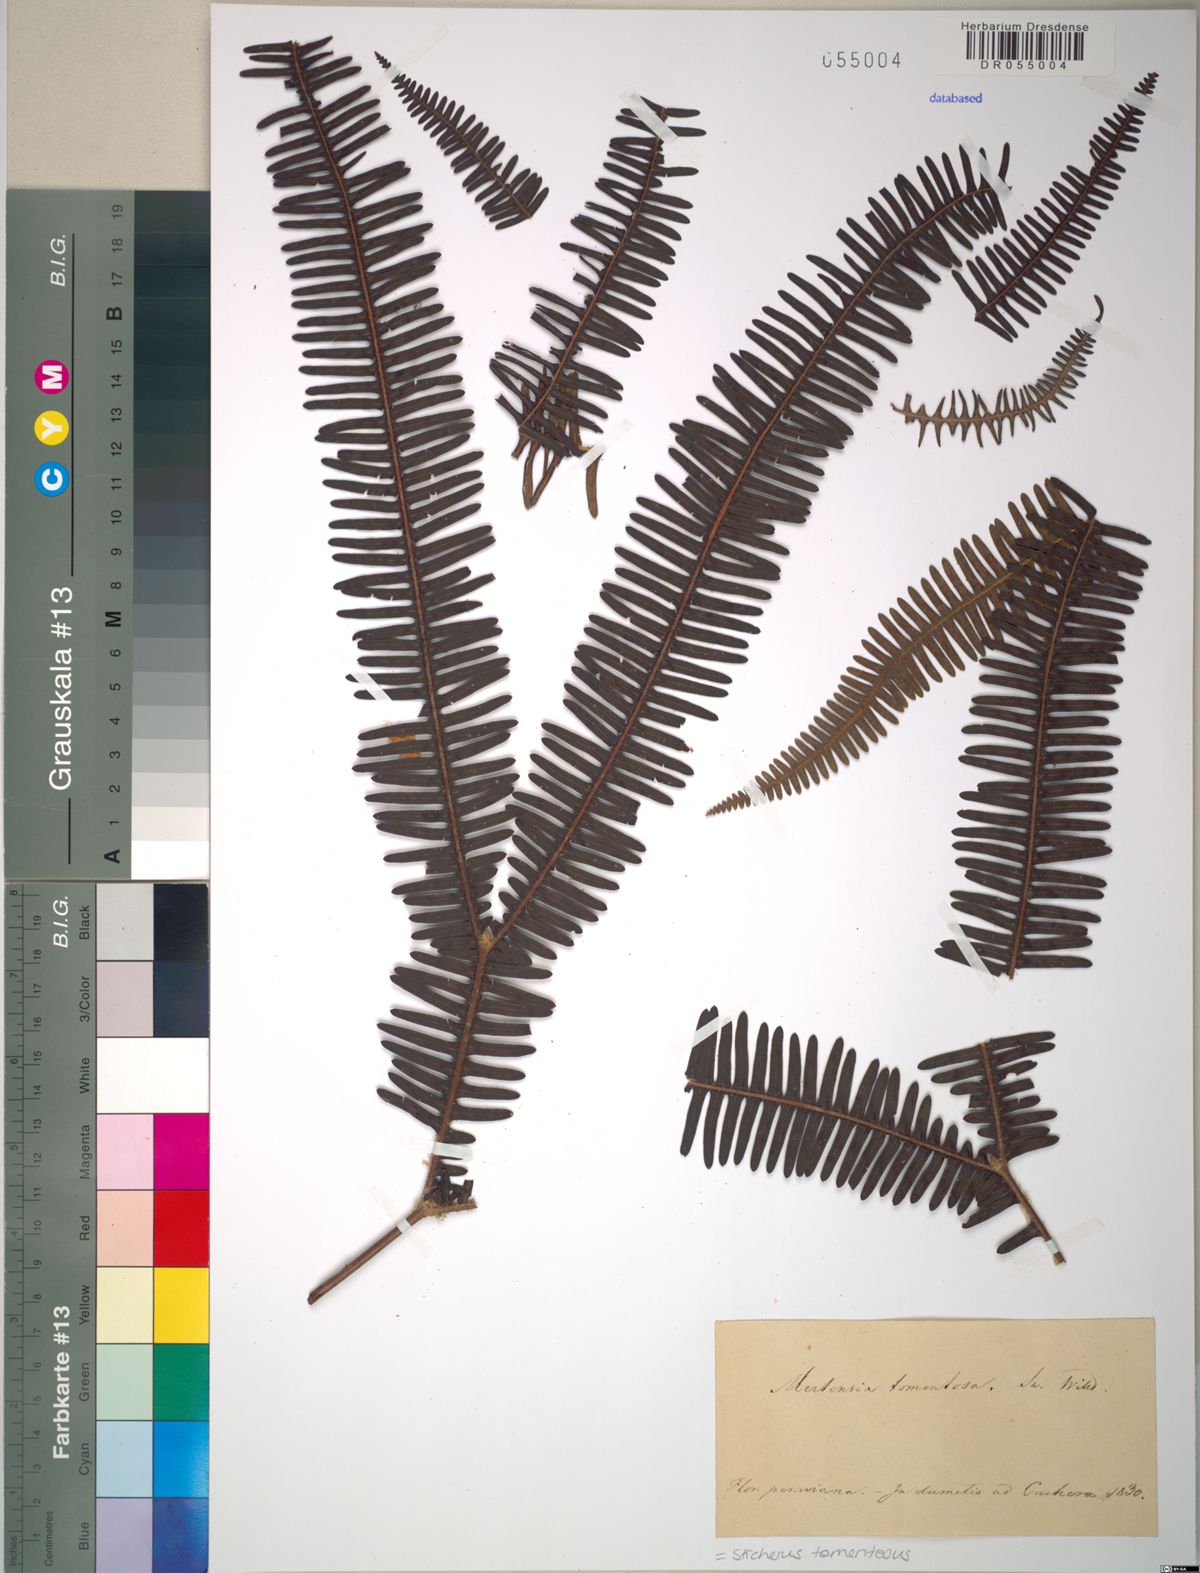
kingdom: Plantae
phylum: Tracheophyta
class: Polypodiopsida
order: Gleicheniales
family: Gleicheniaceae
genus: Sticherus
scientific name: Sticherus tomentosus
